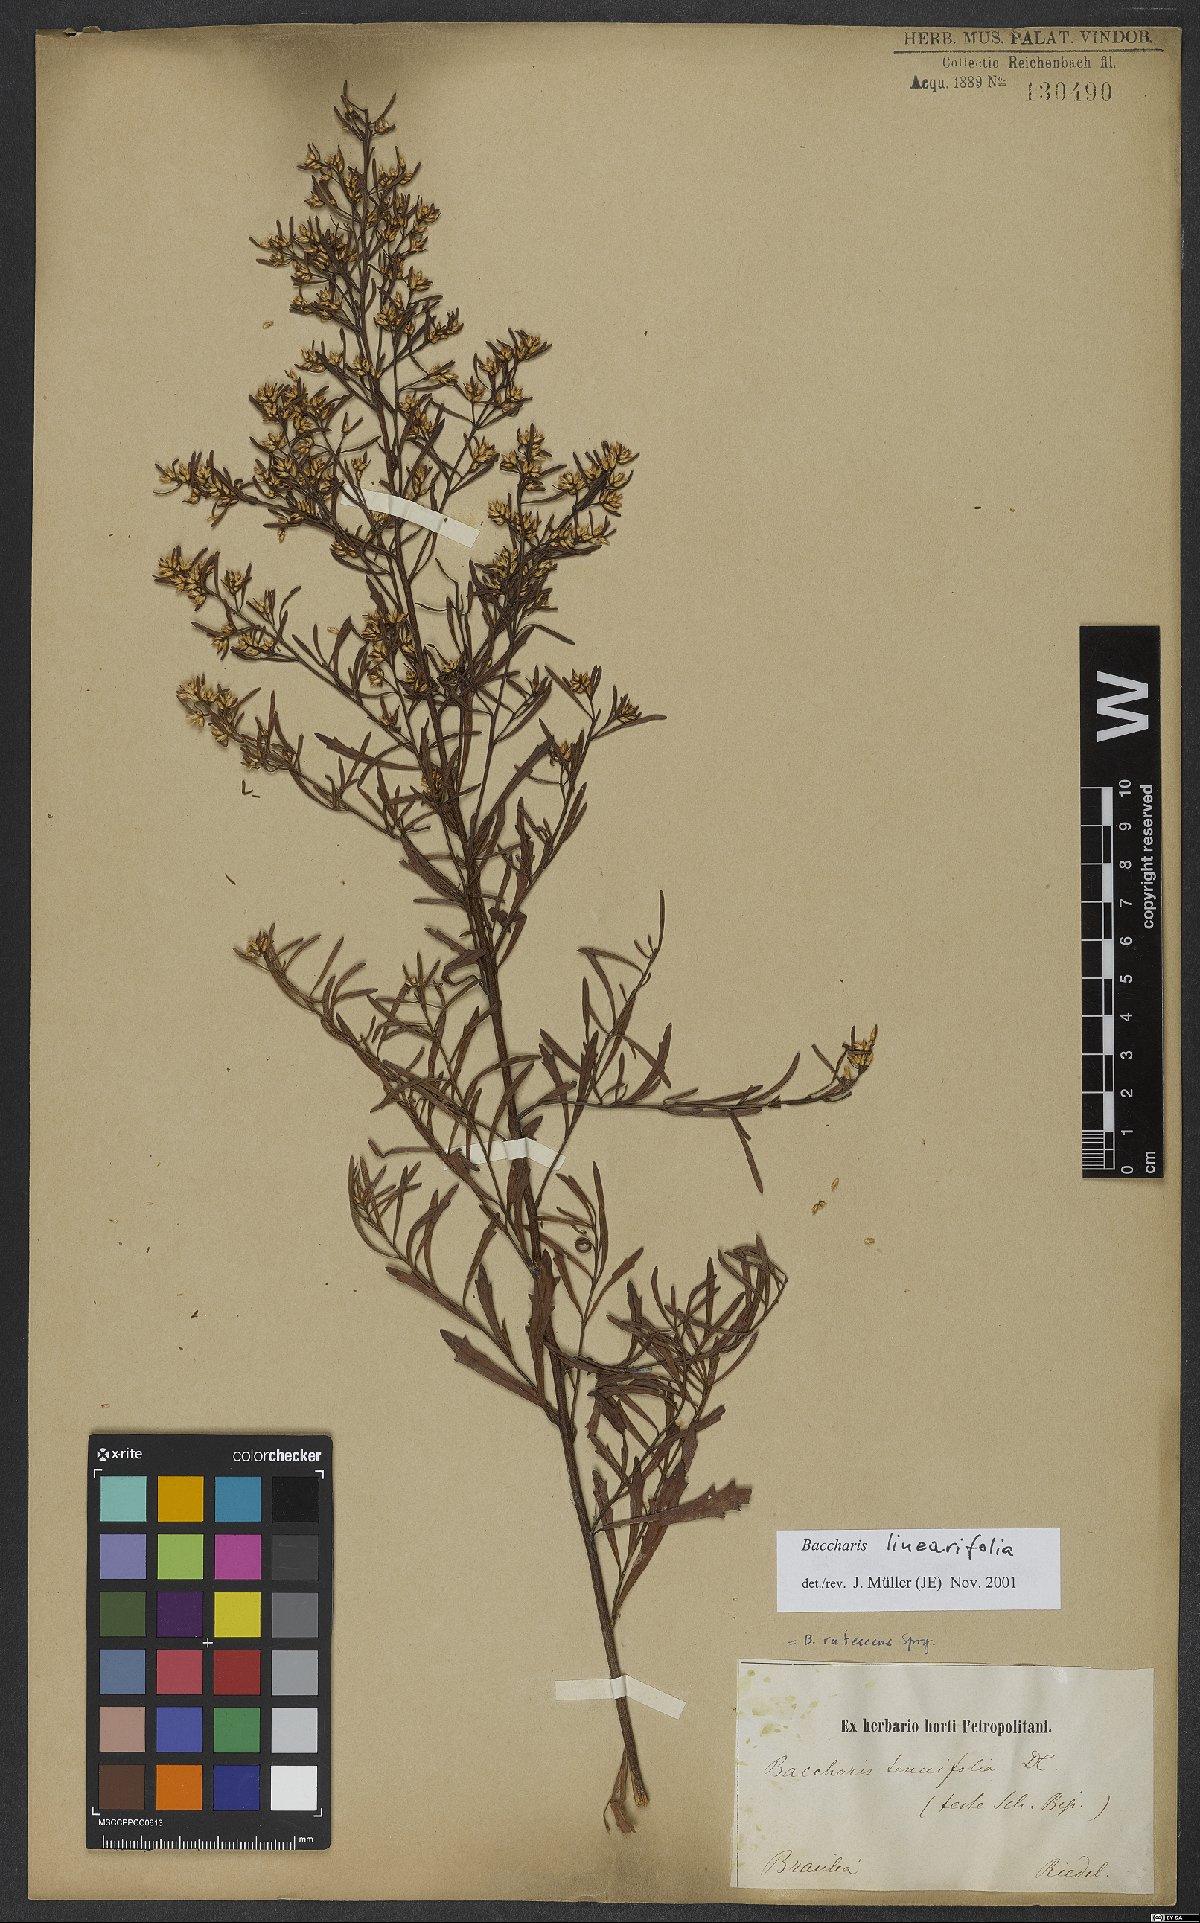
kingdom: Plantae
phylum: Tracheophyta
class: Magnoliopsida
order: Asterales
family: Asteraceae
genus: Baccharis
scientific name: Baccharis linearifolia
